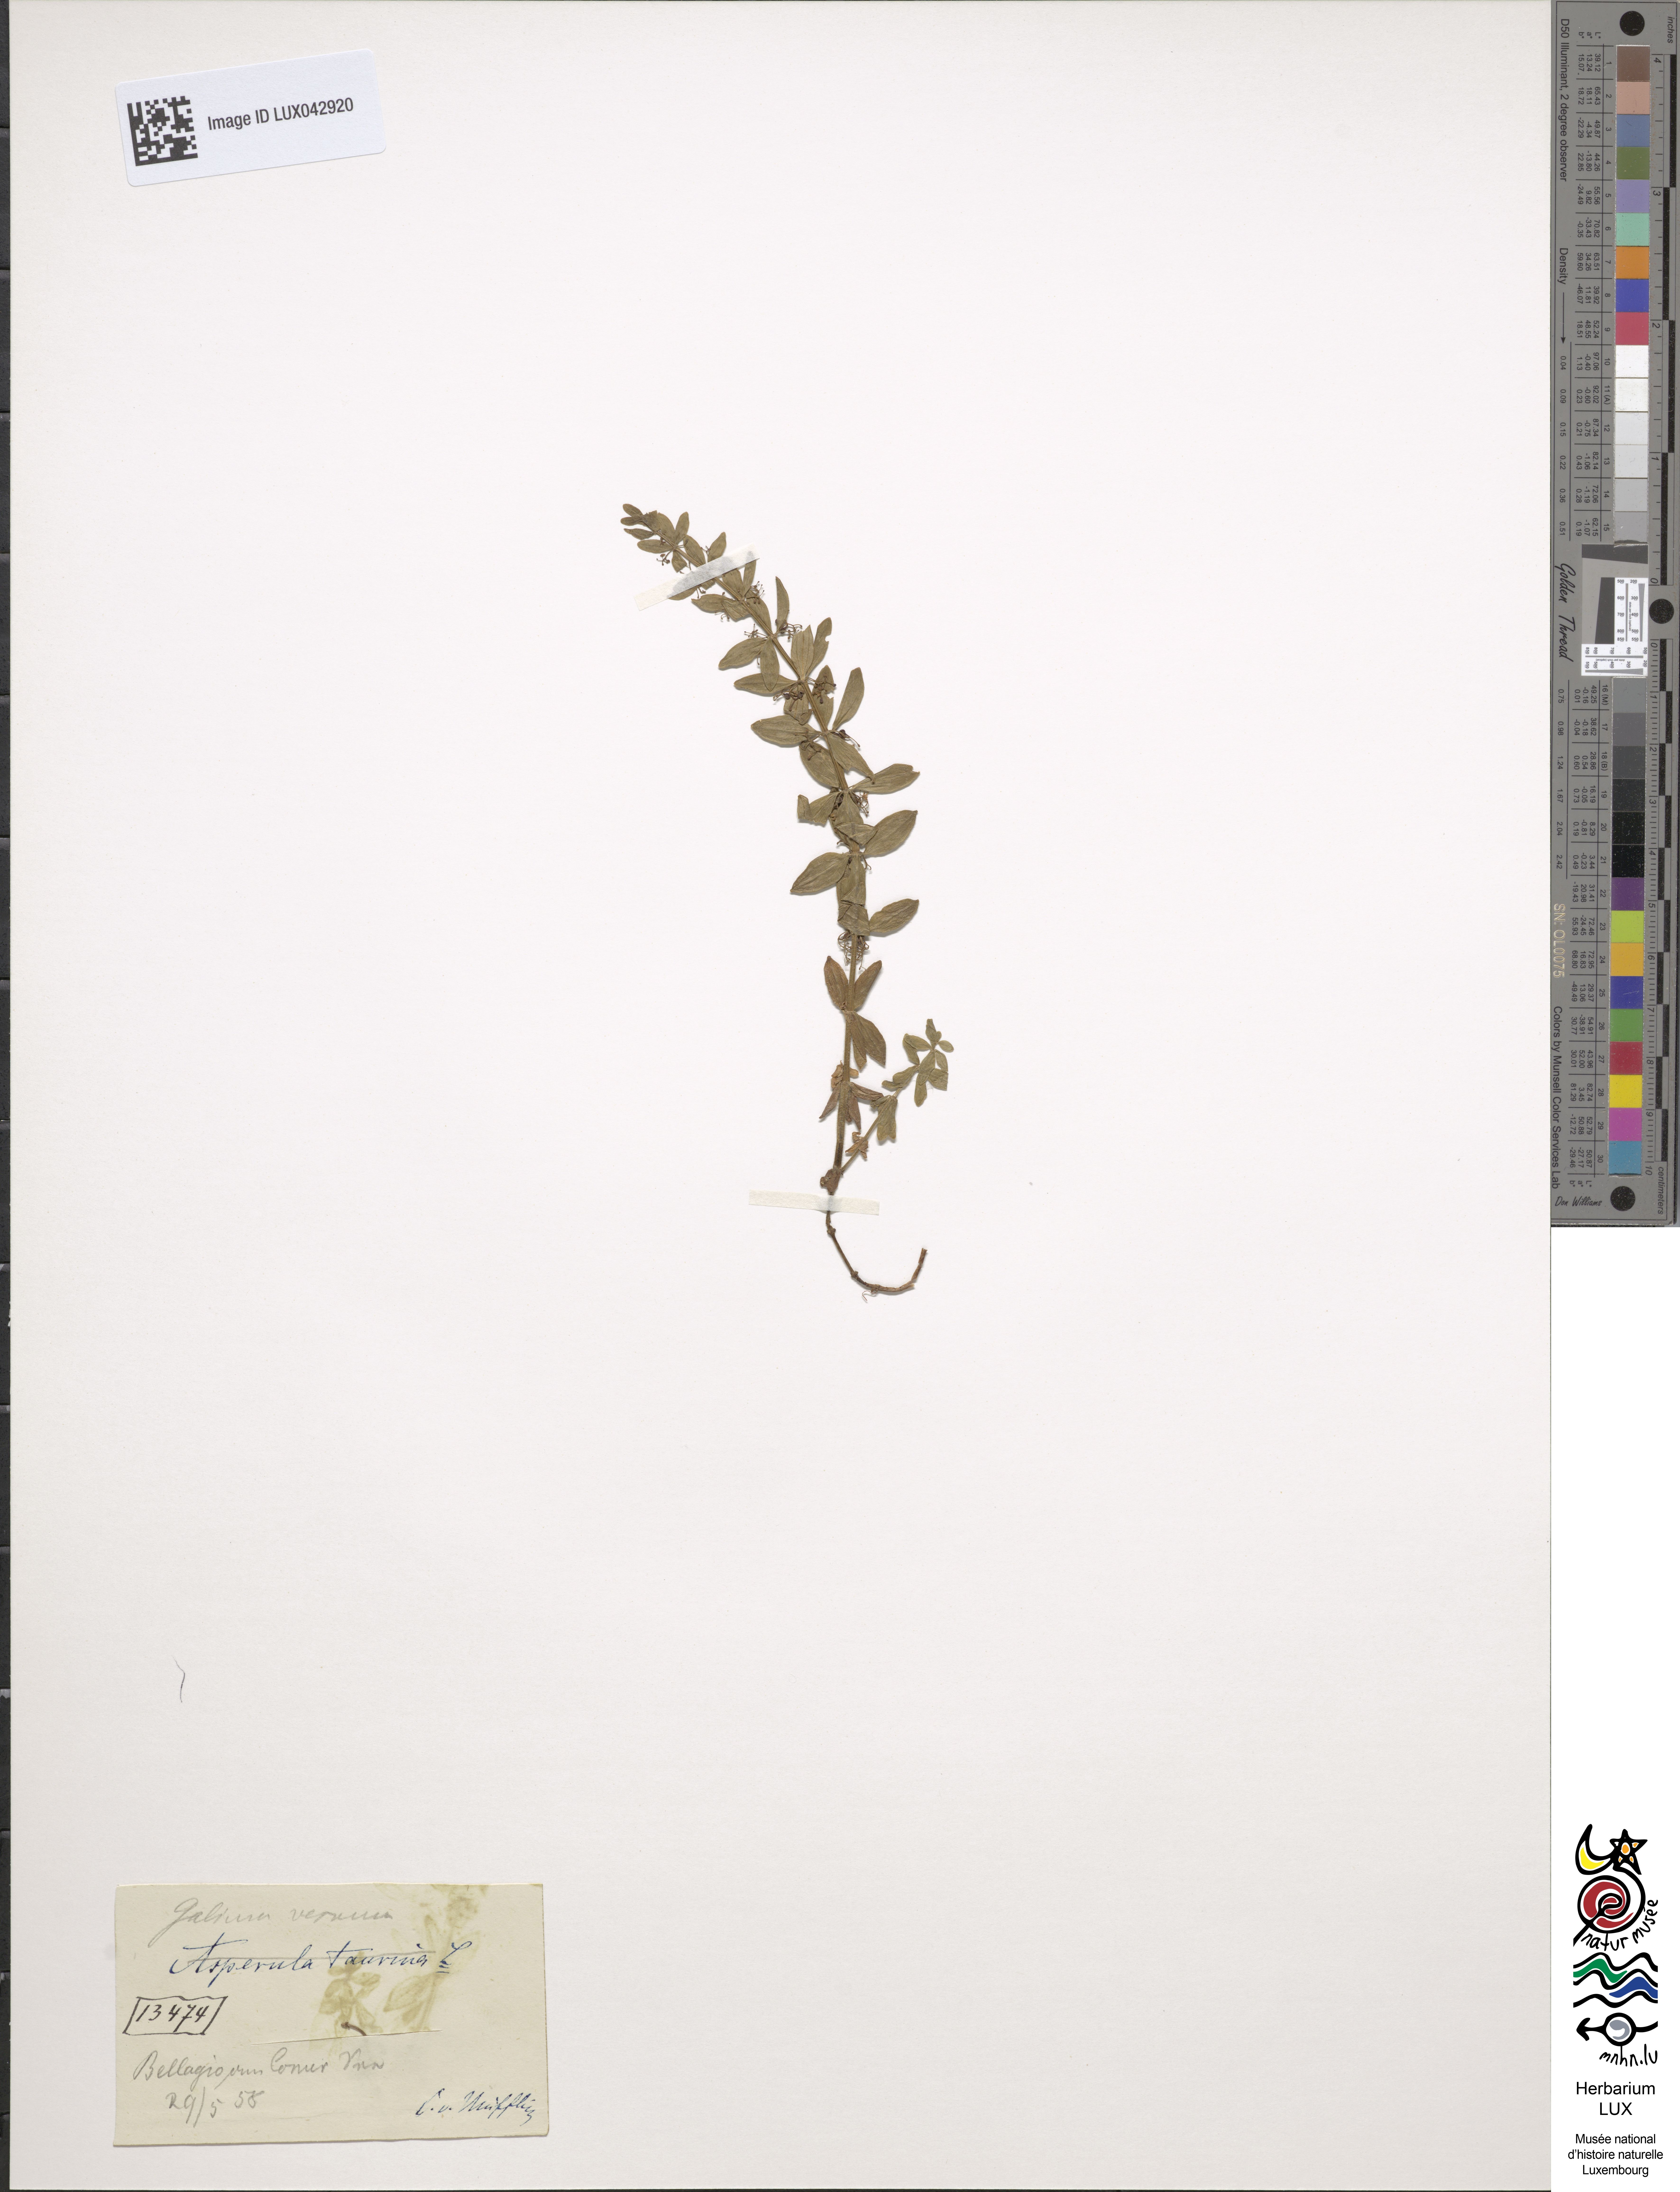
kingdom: Plantae
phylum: Tracheophyta
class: Magnoliopsida
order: Gentianales
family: Rubiaceae
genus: Cruciata
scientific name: Cruciata glabra
